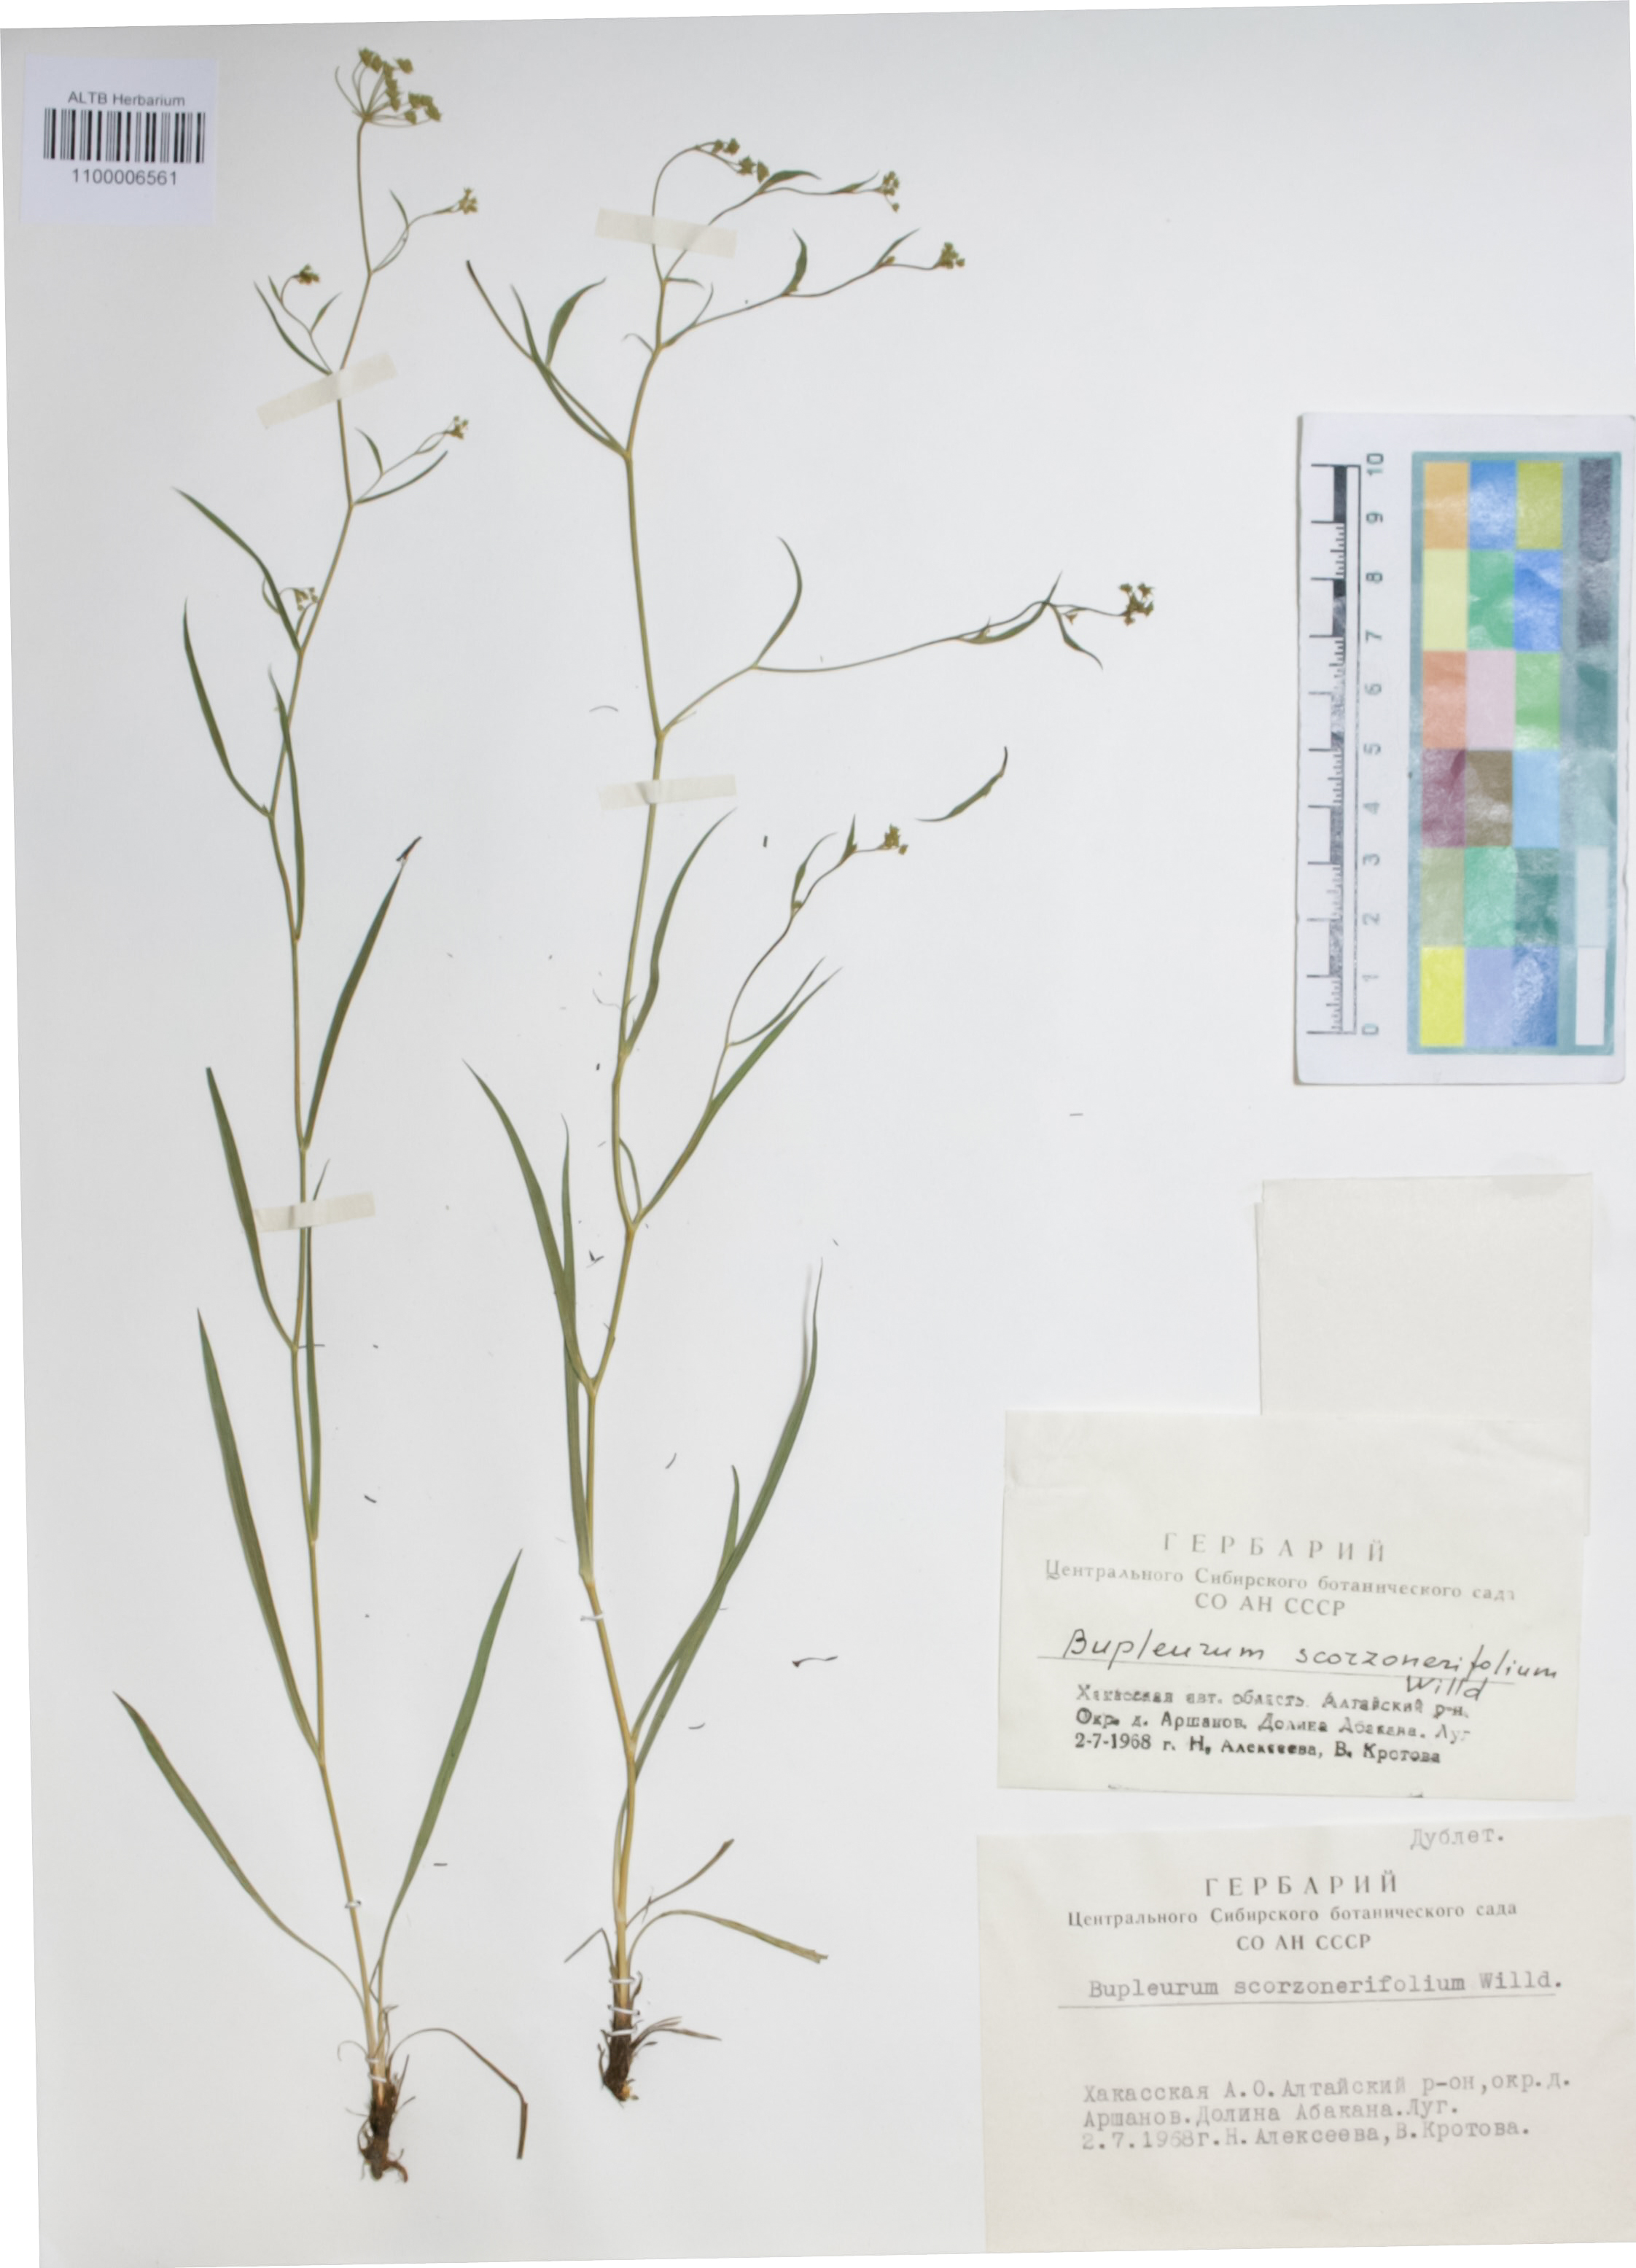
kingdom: Plantae
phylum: Tracheophyta
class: Magnoliopsida
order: Apiales
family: Apiaceae
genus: Bupleurum
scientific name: Bupleurum scorzonerifolium
